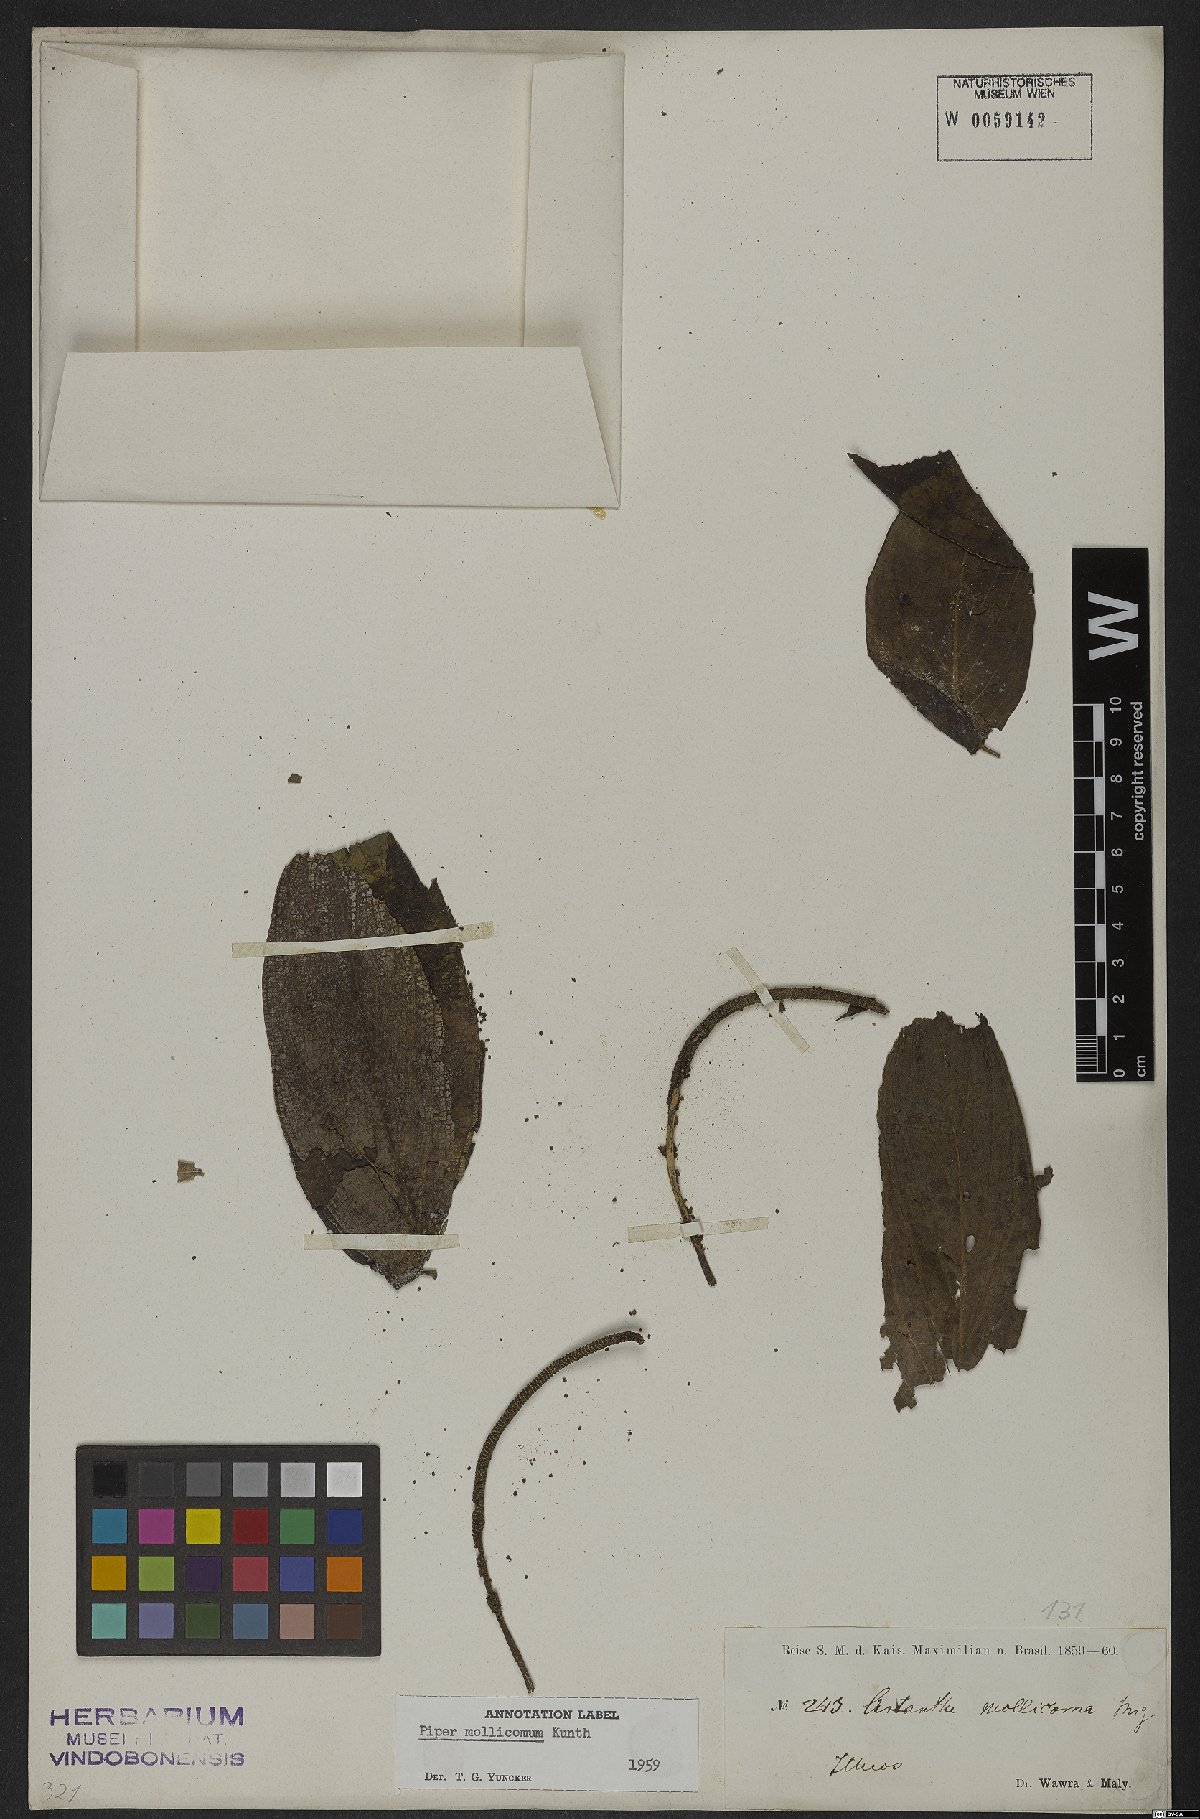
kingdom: Plantae
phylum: Tracheophyta
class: Magnoliopsida
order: Piperales
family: Piperaceae
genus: Piper
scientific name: Piper mollicomum
